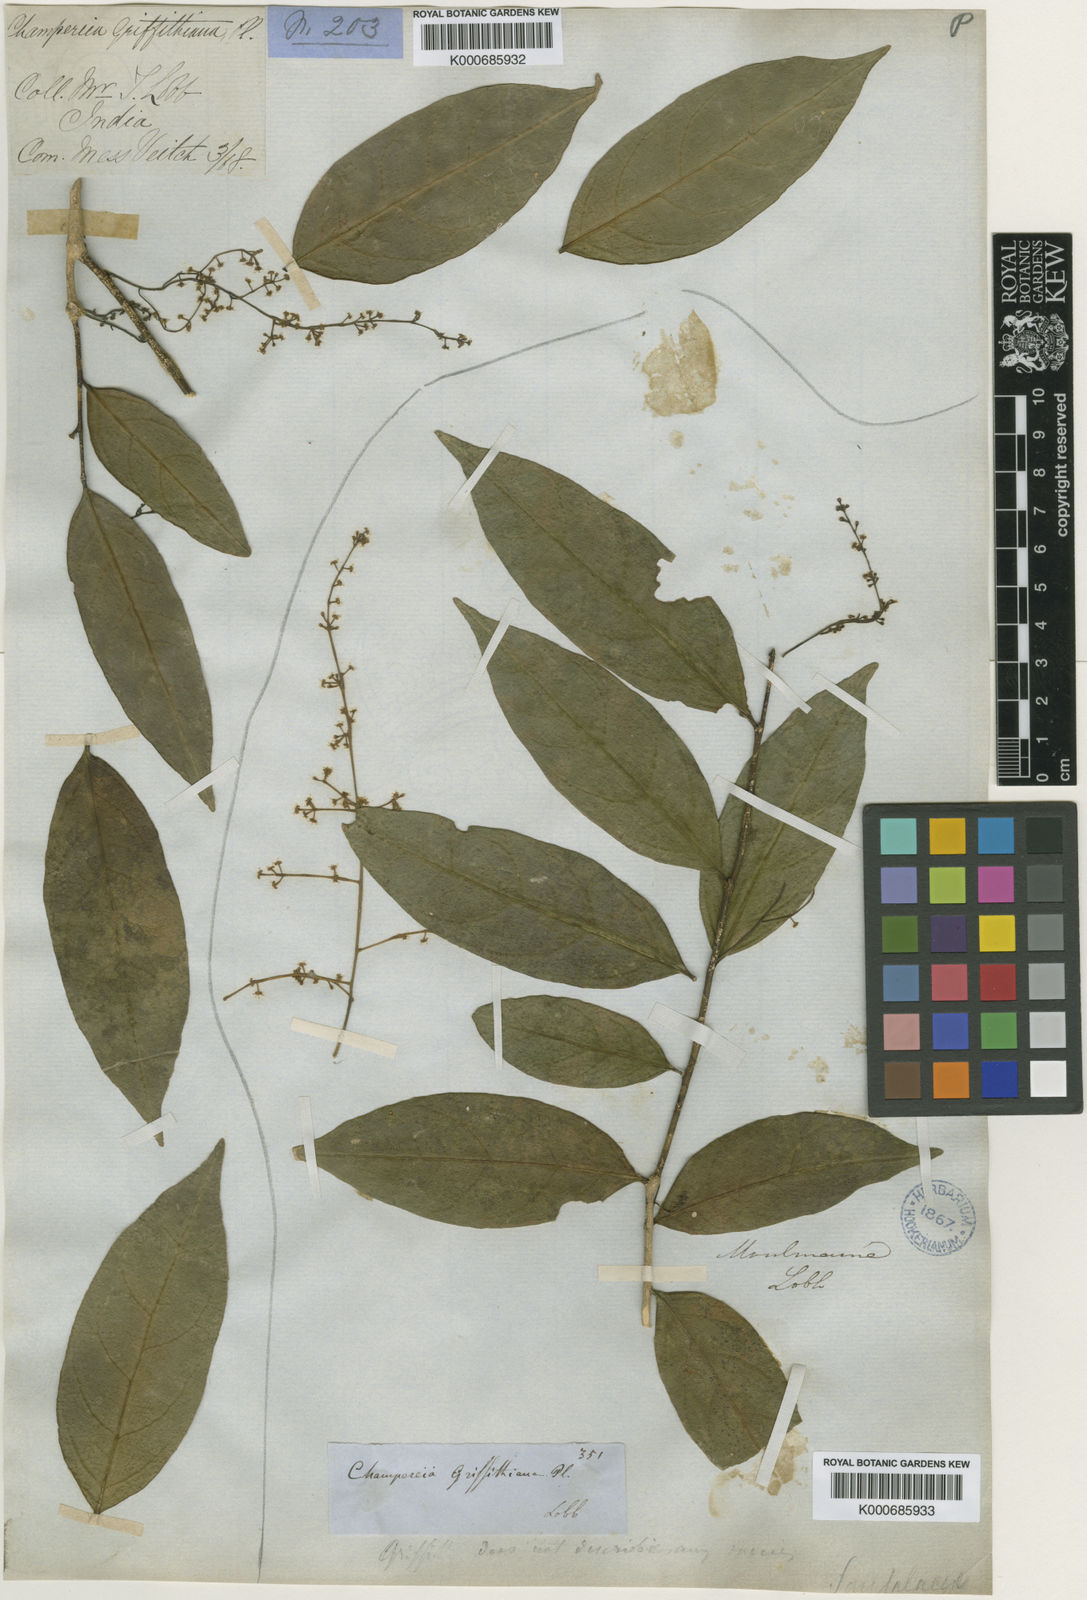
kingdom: Plantae
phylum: Tracheophyta
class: Magnoliopsida
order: Cardiopteridales
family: Cardiopteridaceae
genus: Gonocaryum
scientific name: Gonocaryum lobbianum
